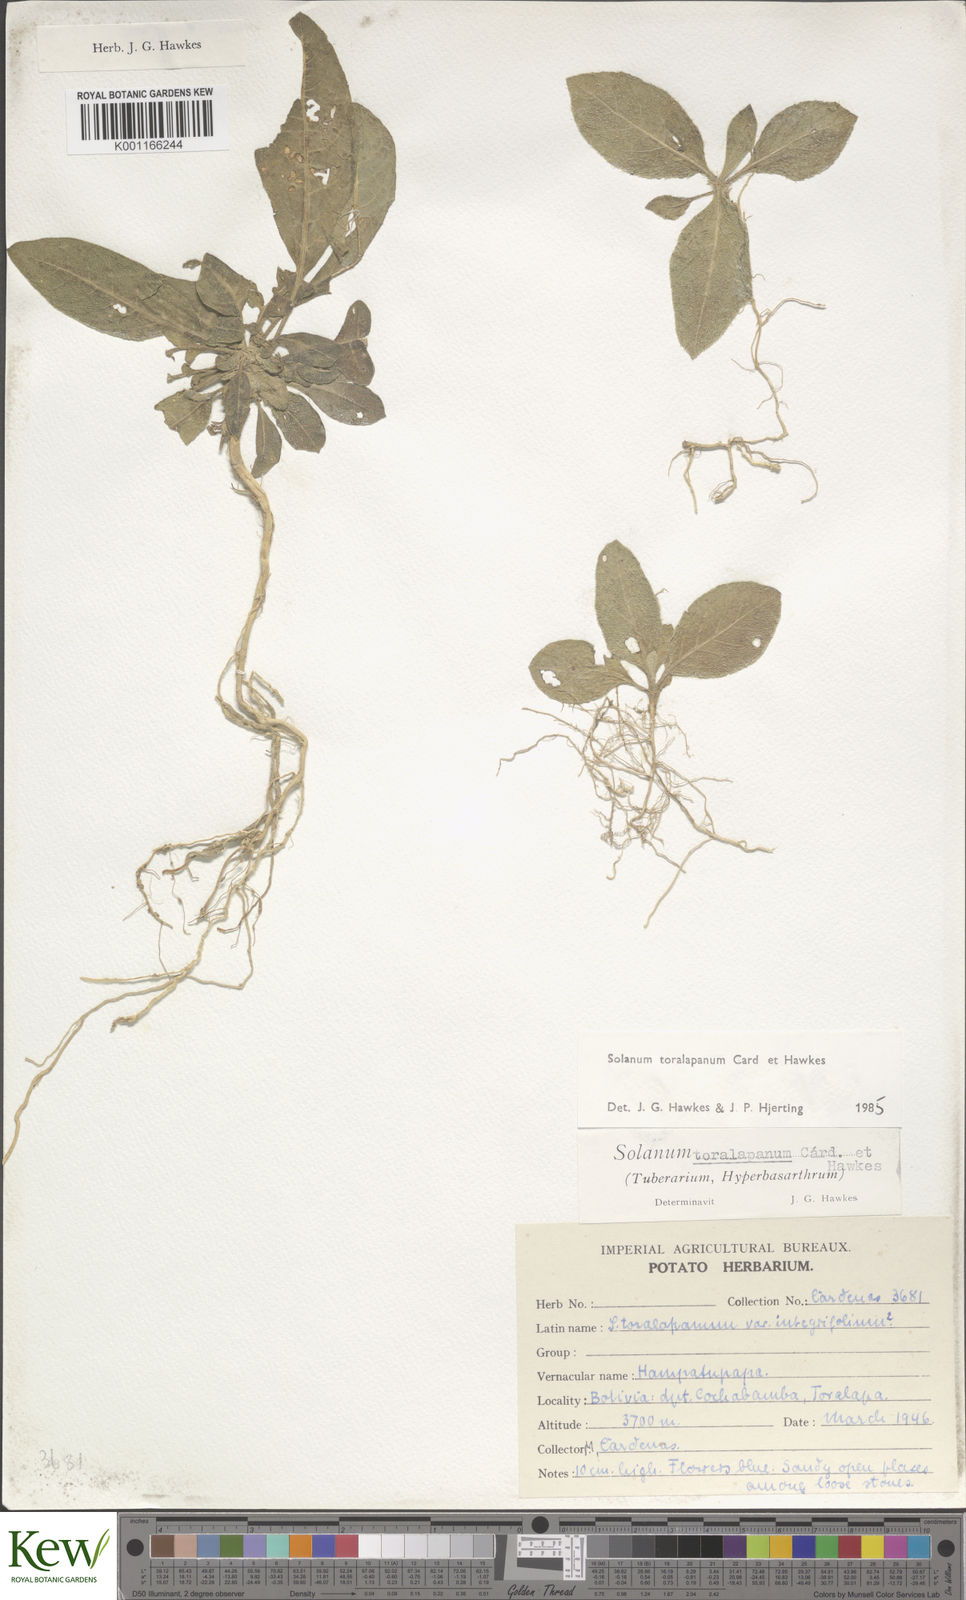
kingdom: Plantae
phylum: Tracheophyta
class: Magnoliopsida
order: Solanales
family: Solanaceae
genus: Solanum
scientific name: Solanum
